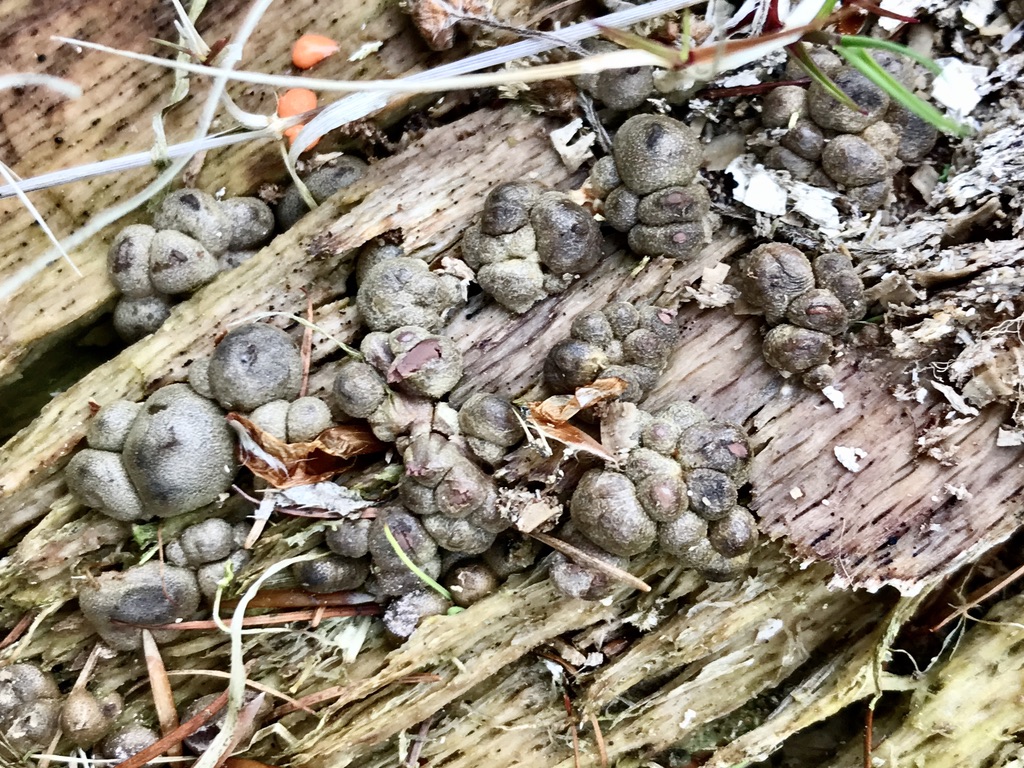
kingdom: Protozoa
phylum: Mycetozoa
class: Myxomycetes
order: Cribrariales
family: Tubiferaceae
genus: Lycogala
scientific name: Lycogala epidendrum
